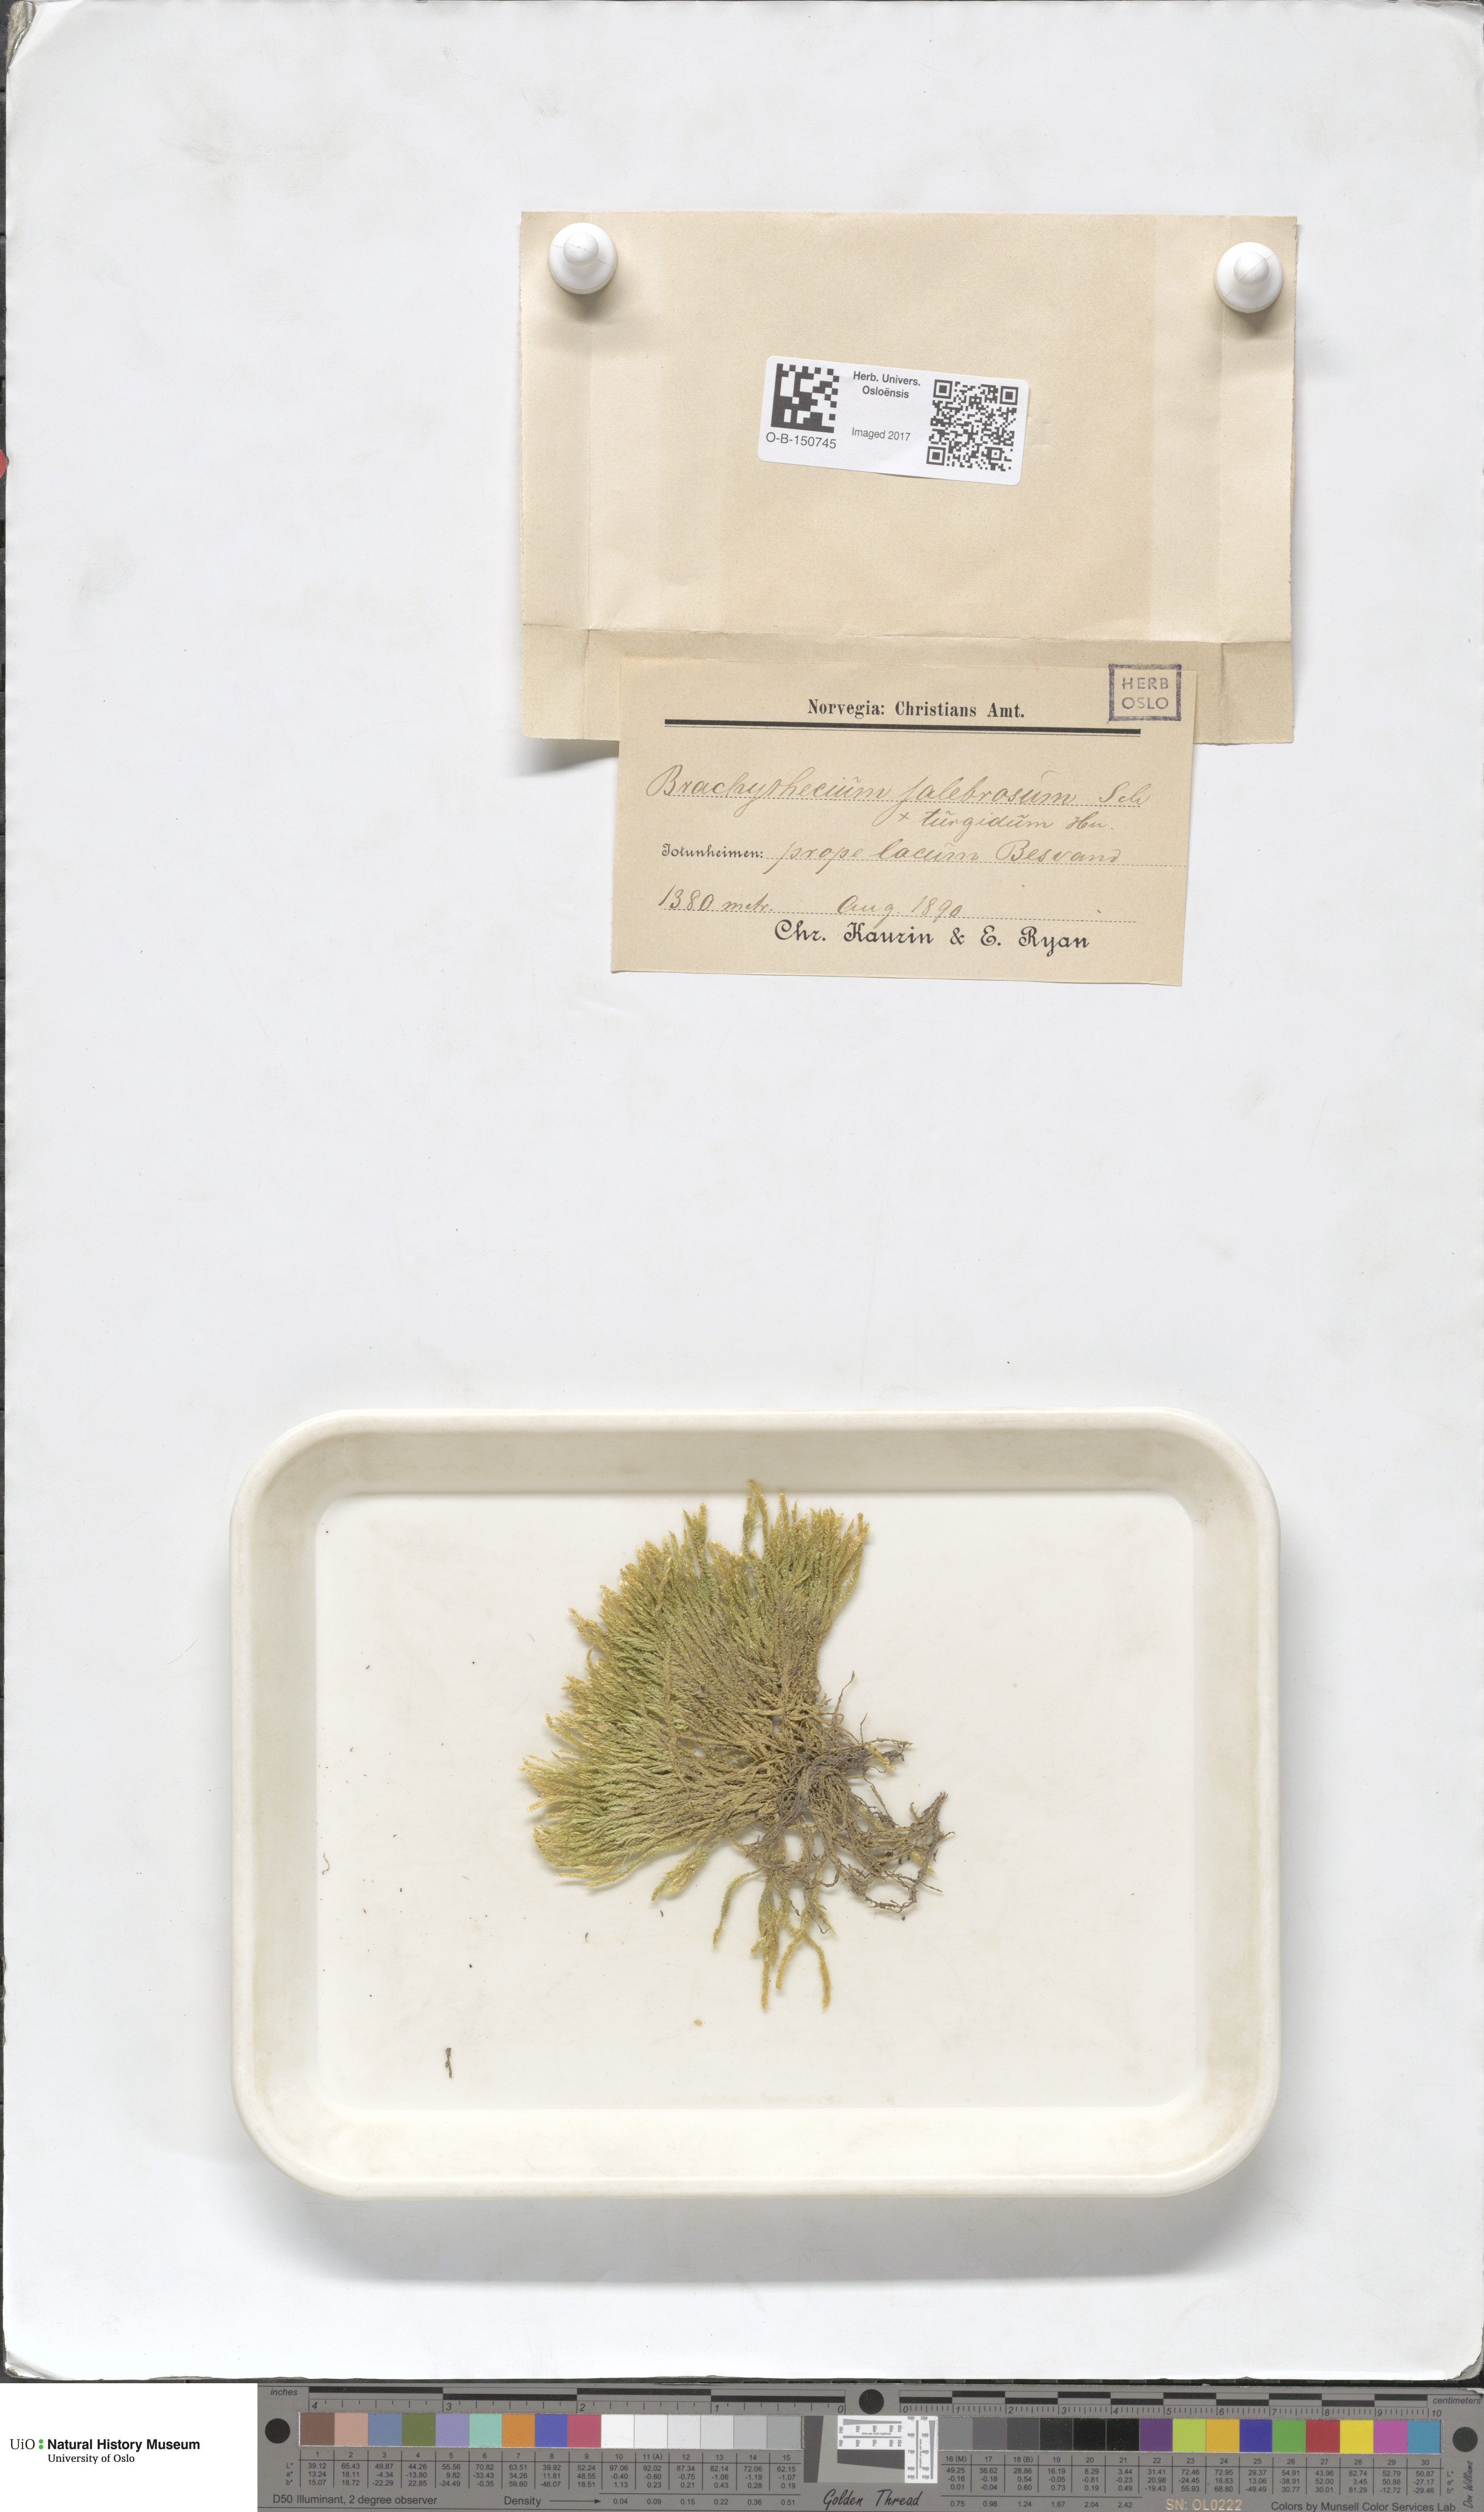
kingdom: Plantae
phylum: Bryophyta
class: Bryopsida
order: Hypnales
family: Brachytheciaceae
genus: Brachythecium
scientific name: Brachythecium turgidum
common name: Thick ragged moss
